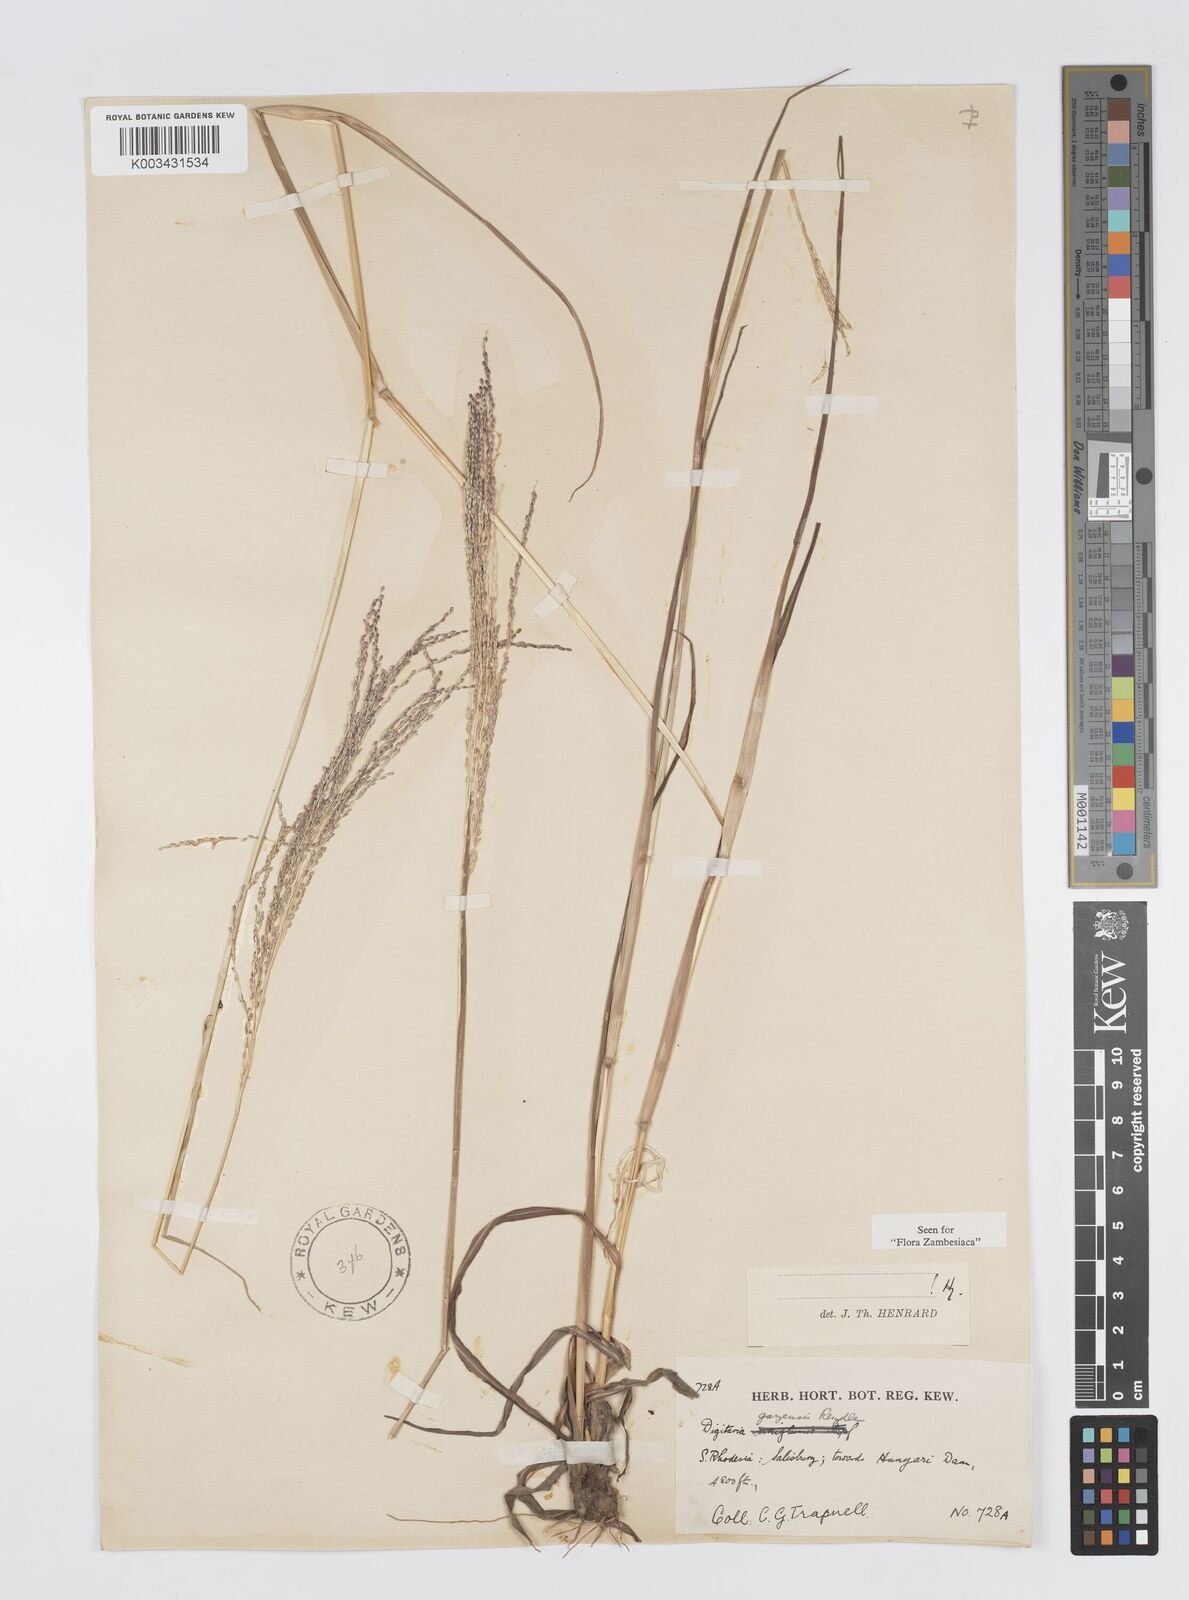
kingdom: Plantae
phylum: Tracheophyta
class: Liliopsida
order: Poales
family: Poaceae
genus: Digitaria
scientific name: Digitaria gazensis
